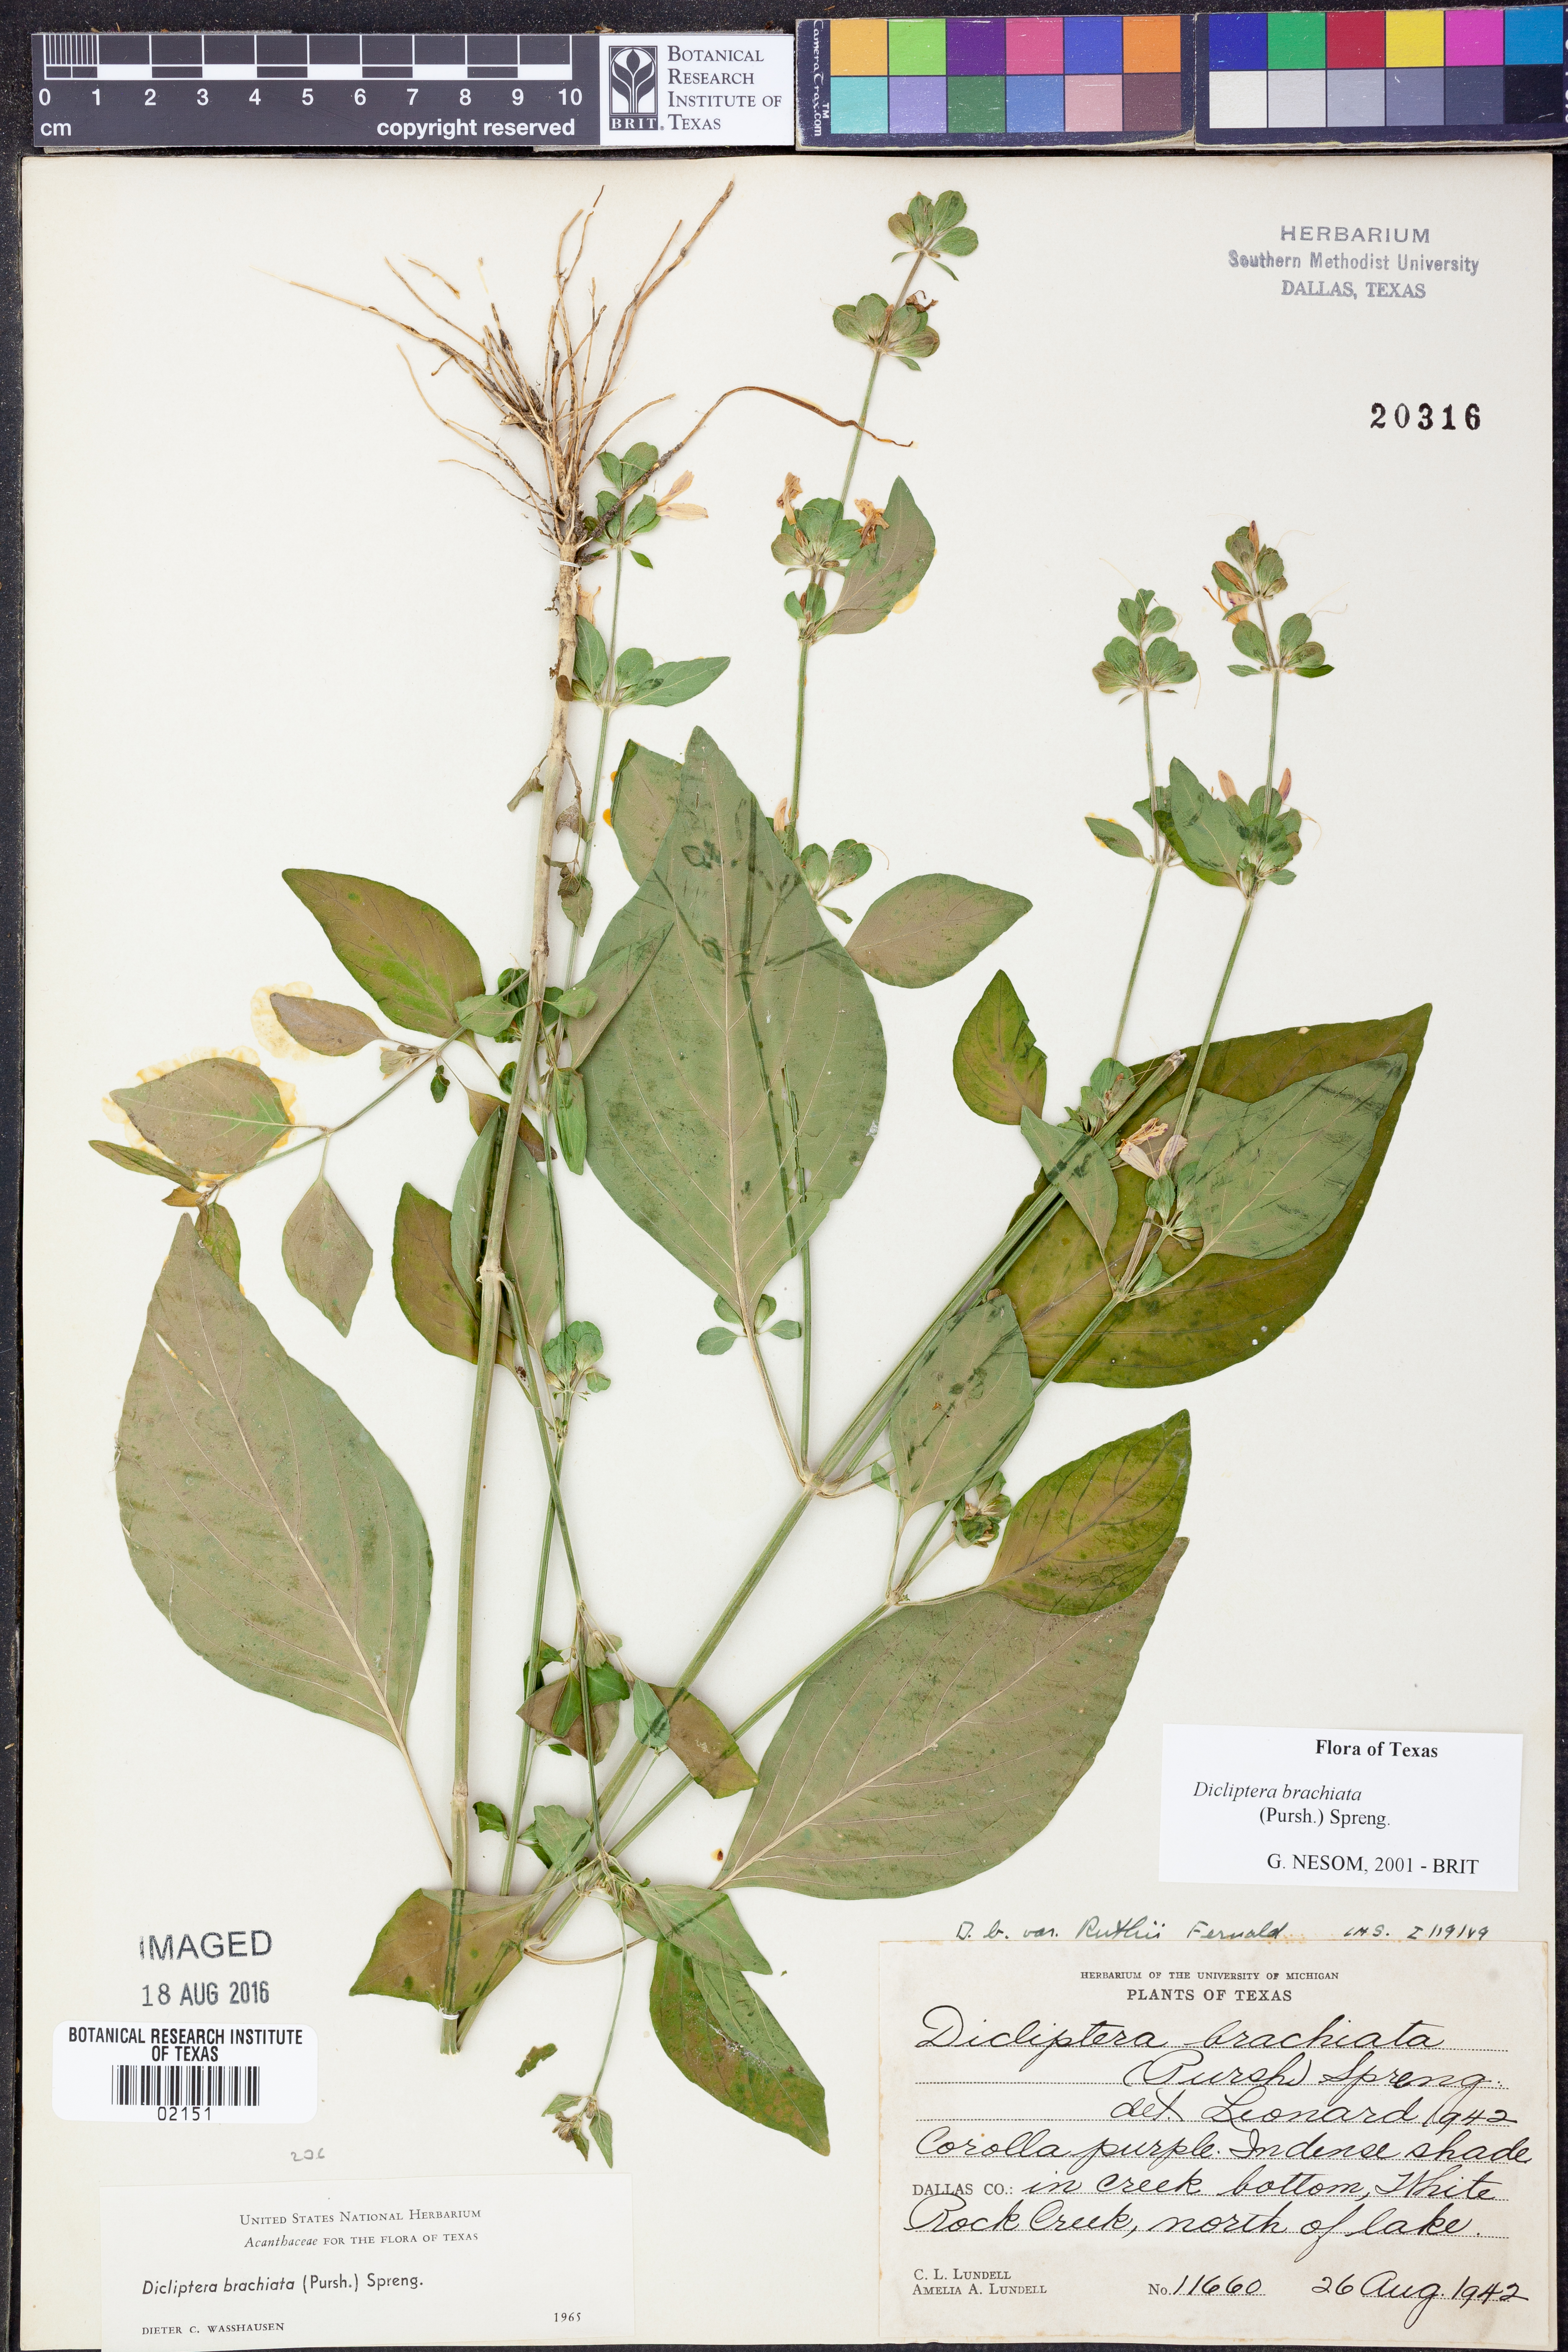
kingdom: Plantae
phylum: Tracheophyta
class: Magnoliopsida
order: Lamiales
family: Acanthaceae
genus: Dicliptera
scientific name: Dicliptera brachiata
